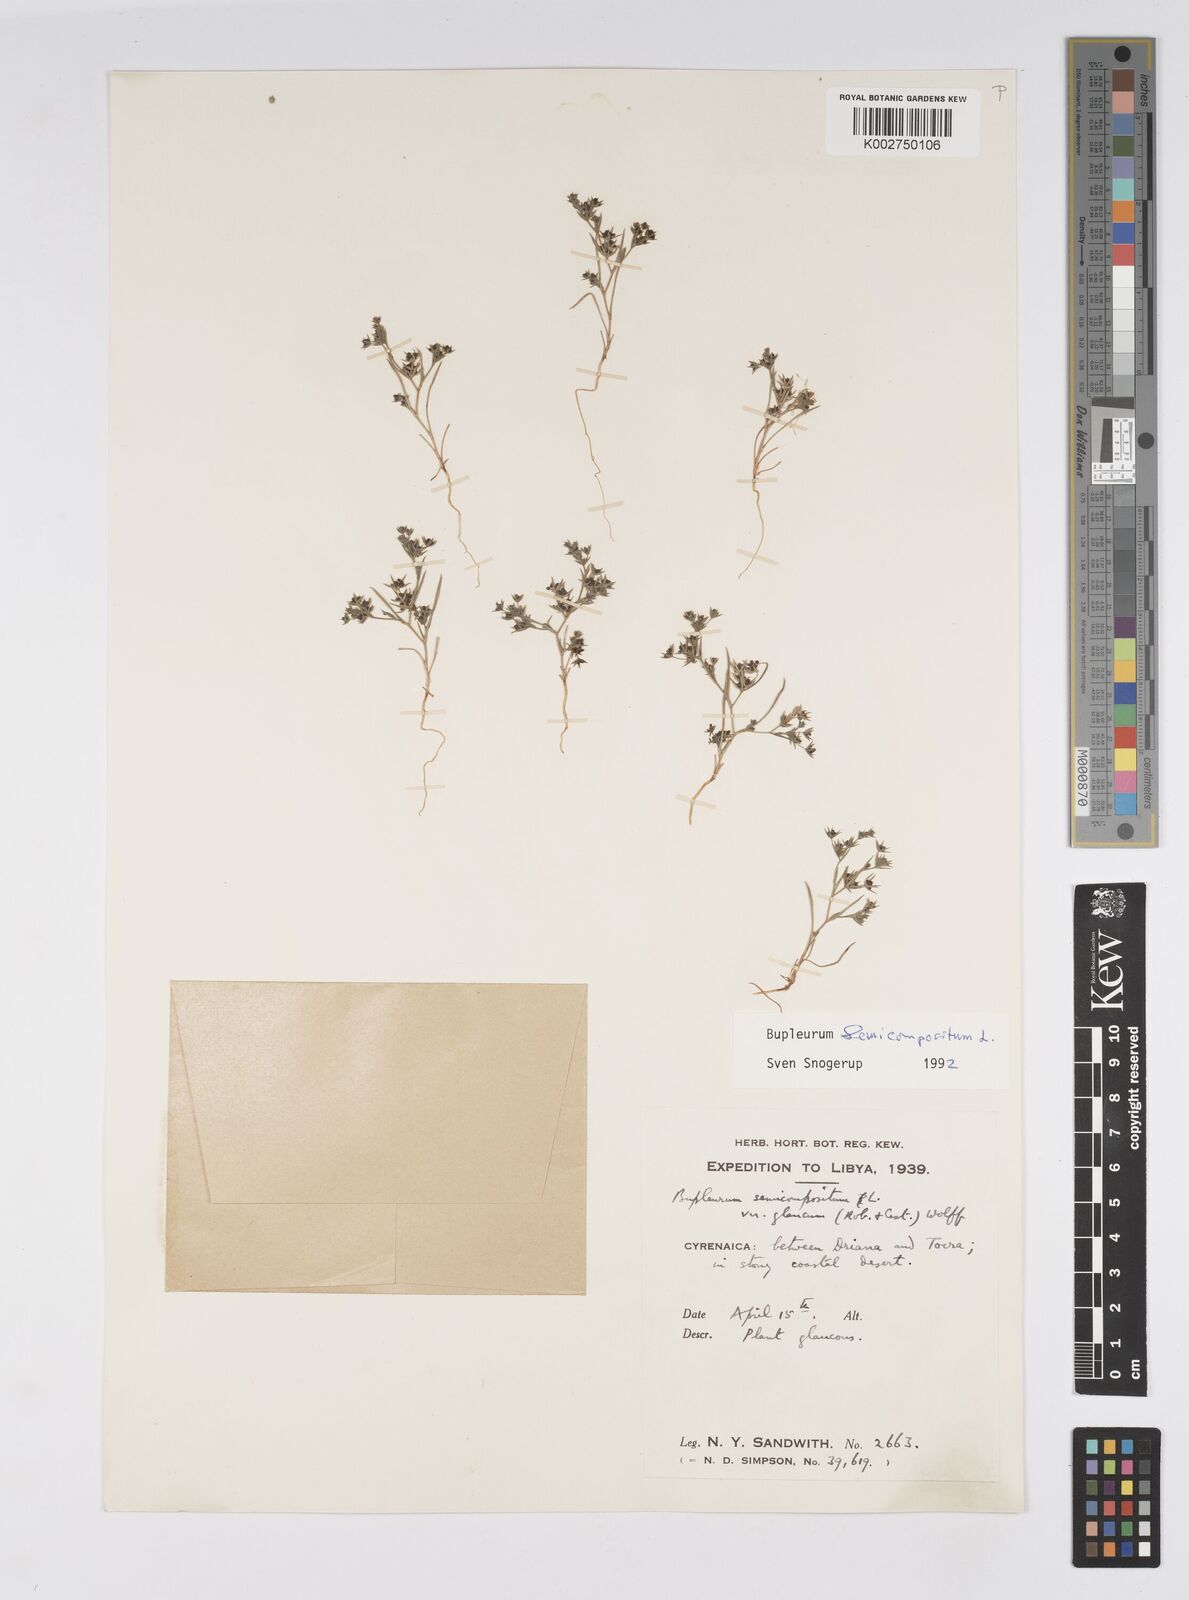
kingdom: Plantae
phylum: Tracheophyta
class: Magnoliopsida
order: Apiales
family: Apiaceae
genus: Bupleurum
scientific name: Bupleurum semicompositum
